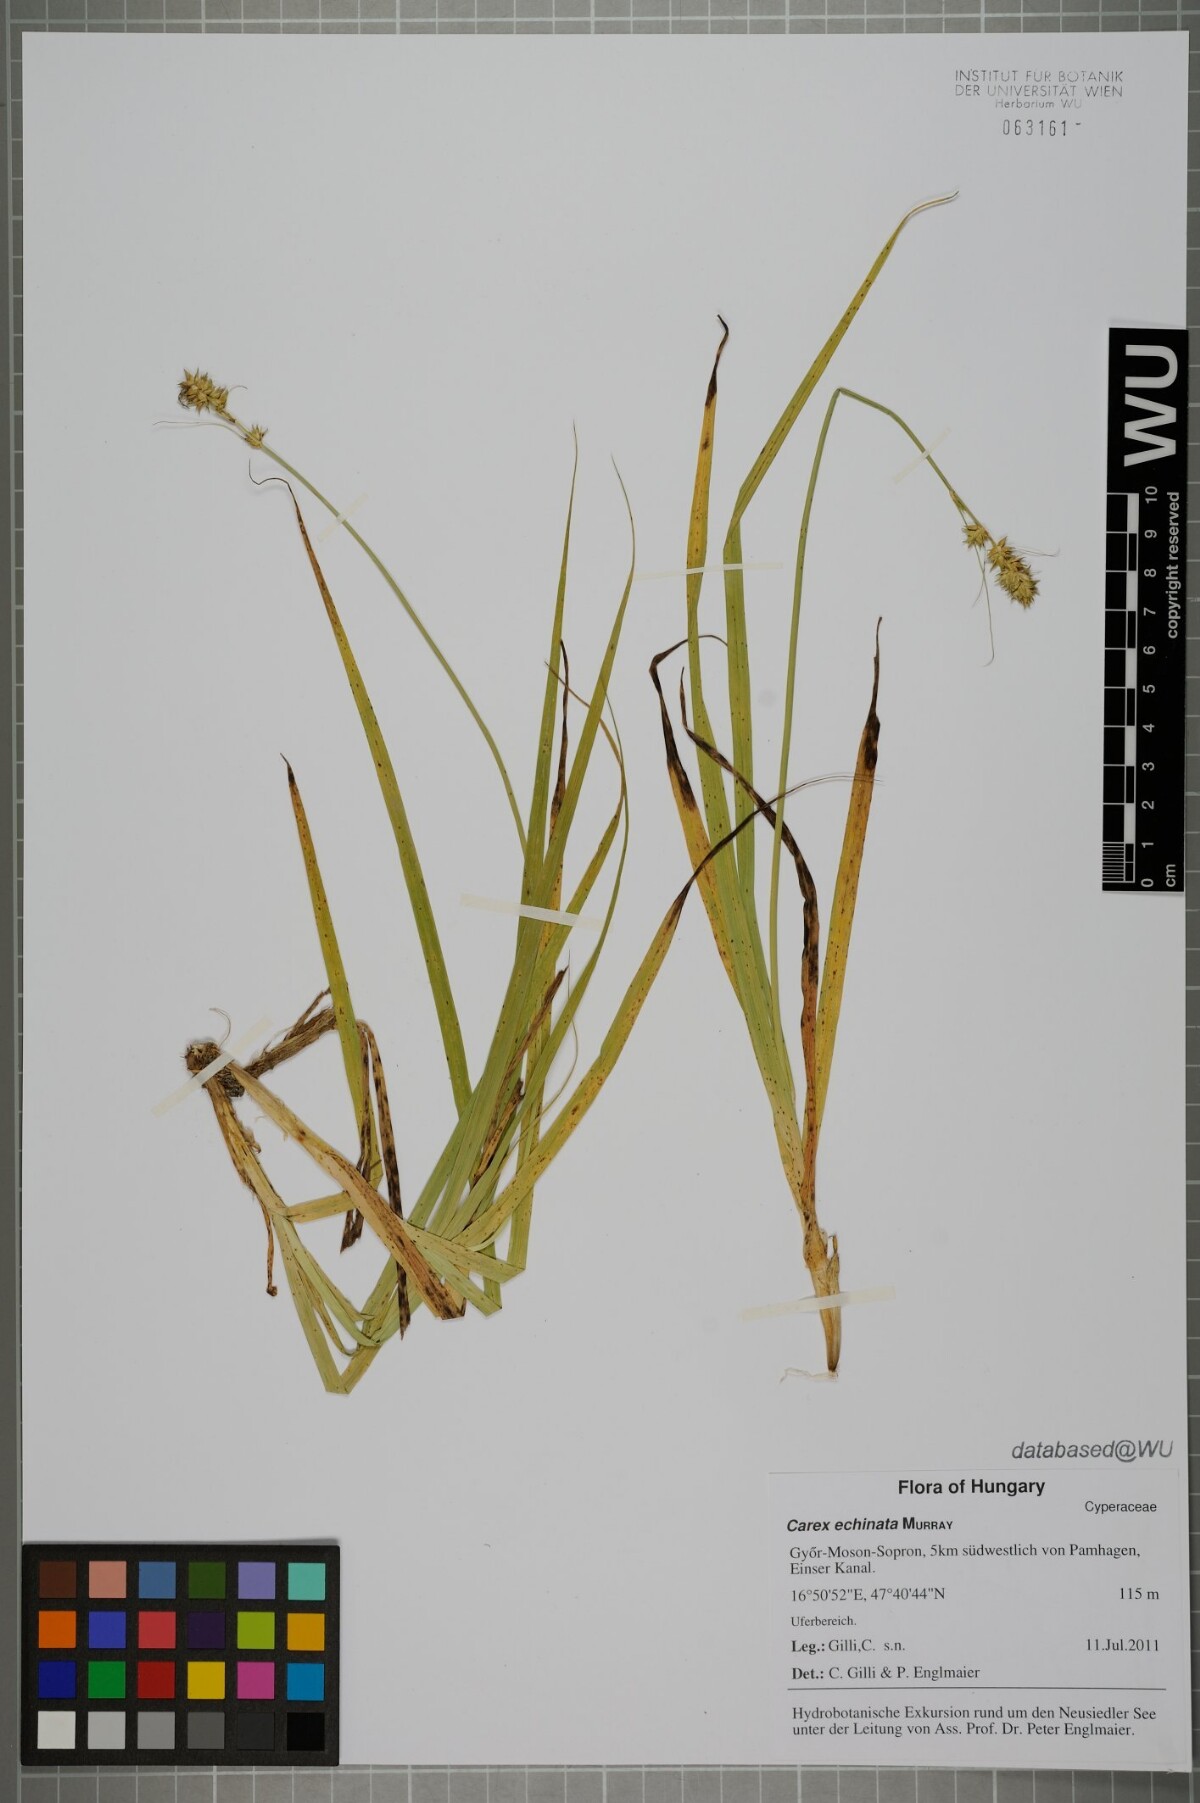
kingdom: Plantae
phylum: Tracheophyta
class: Liliopsida
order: Poales
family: Cyperaceae
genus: Carex
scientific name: Carex echinata
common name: Star sedge
